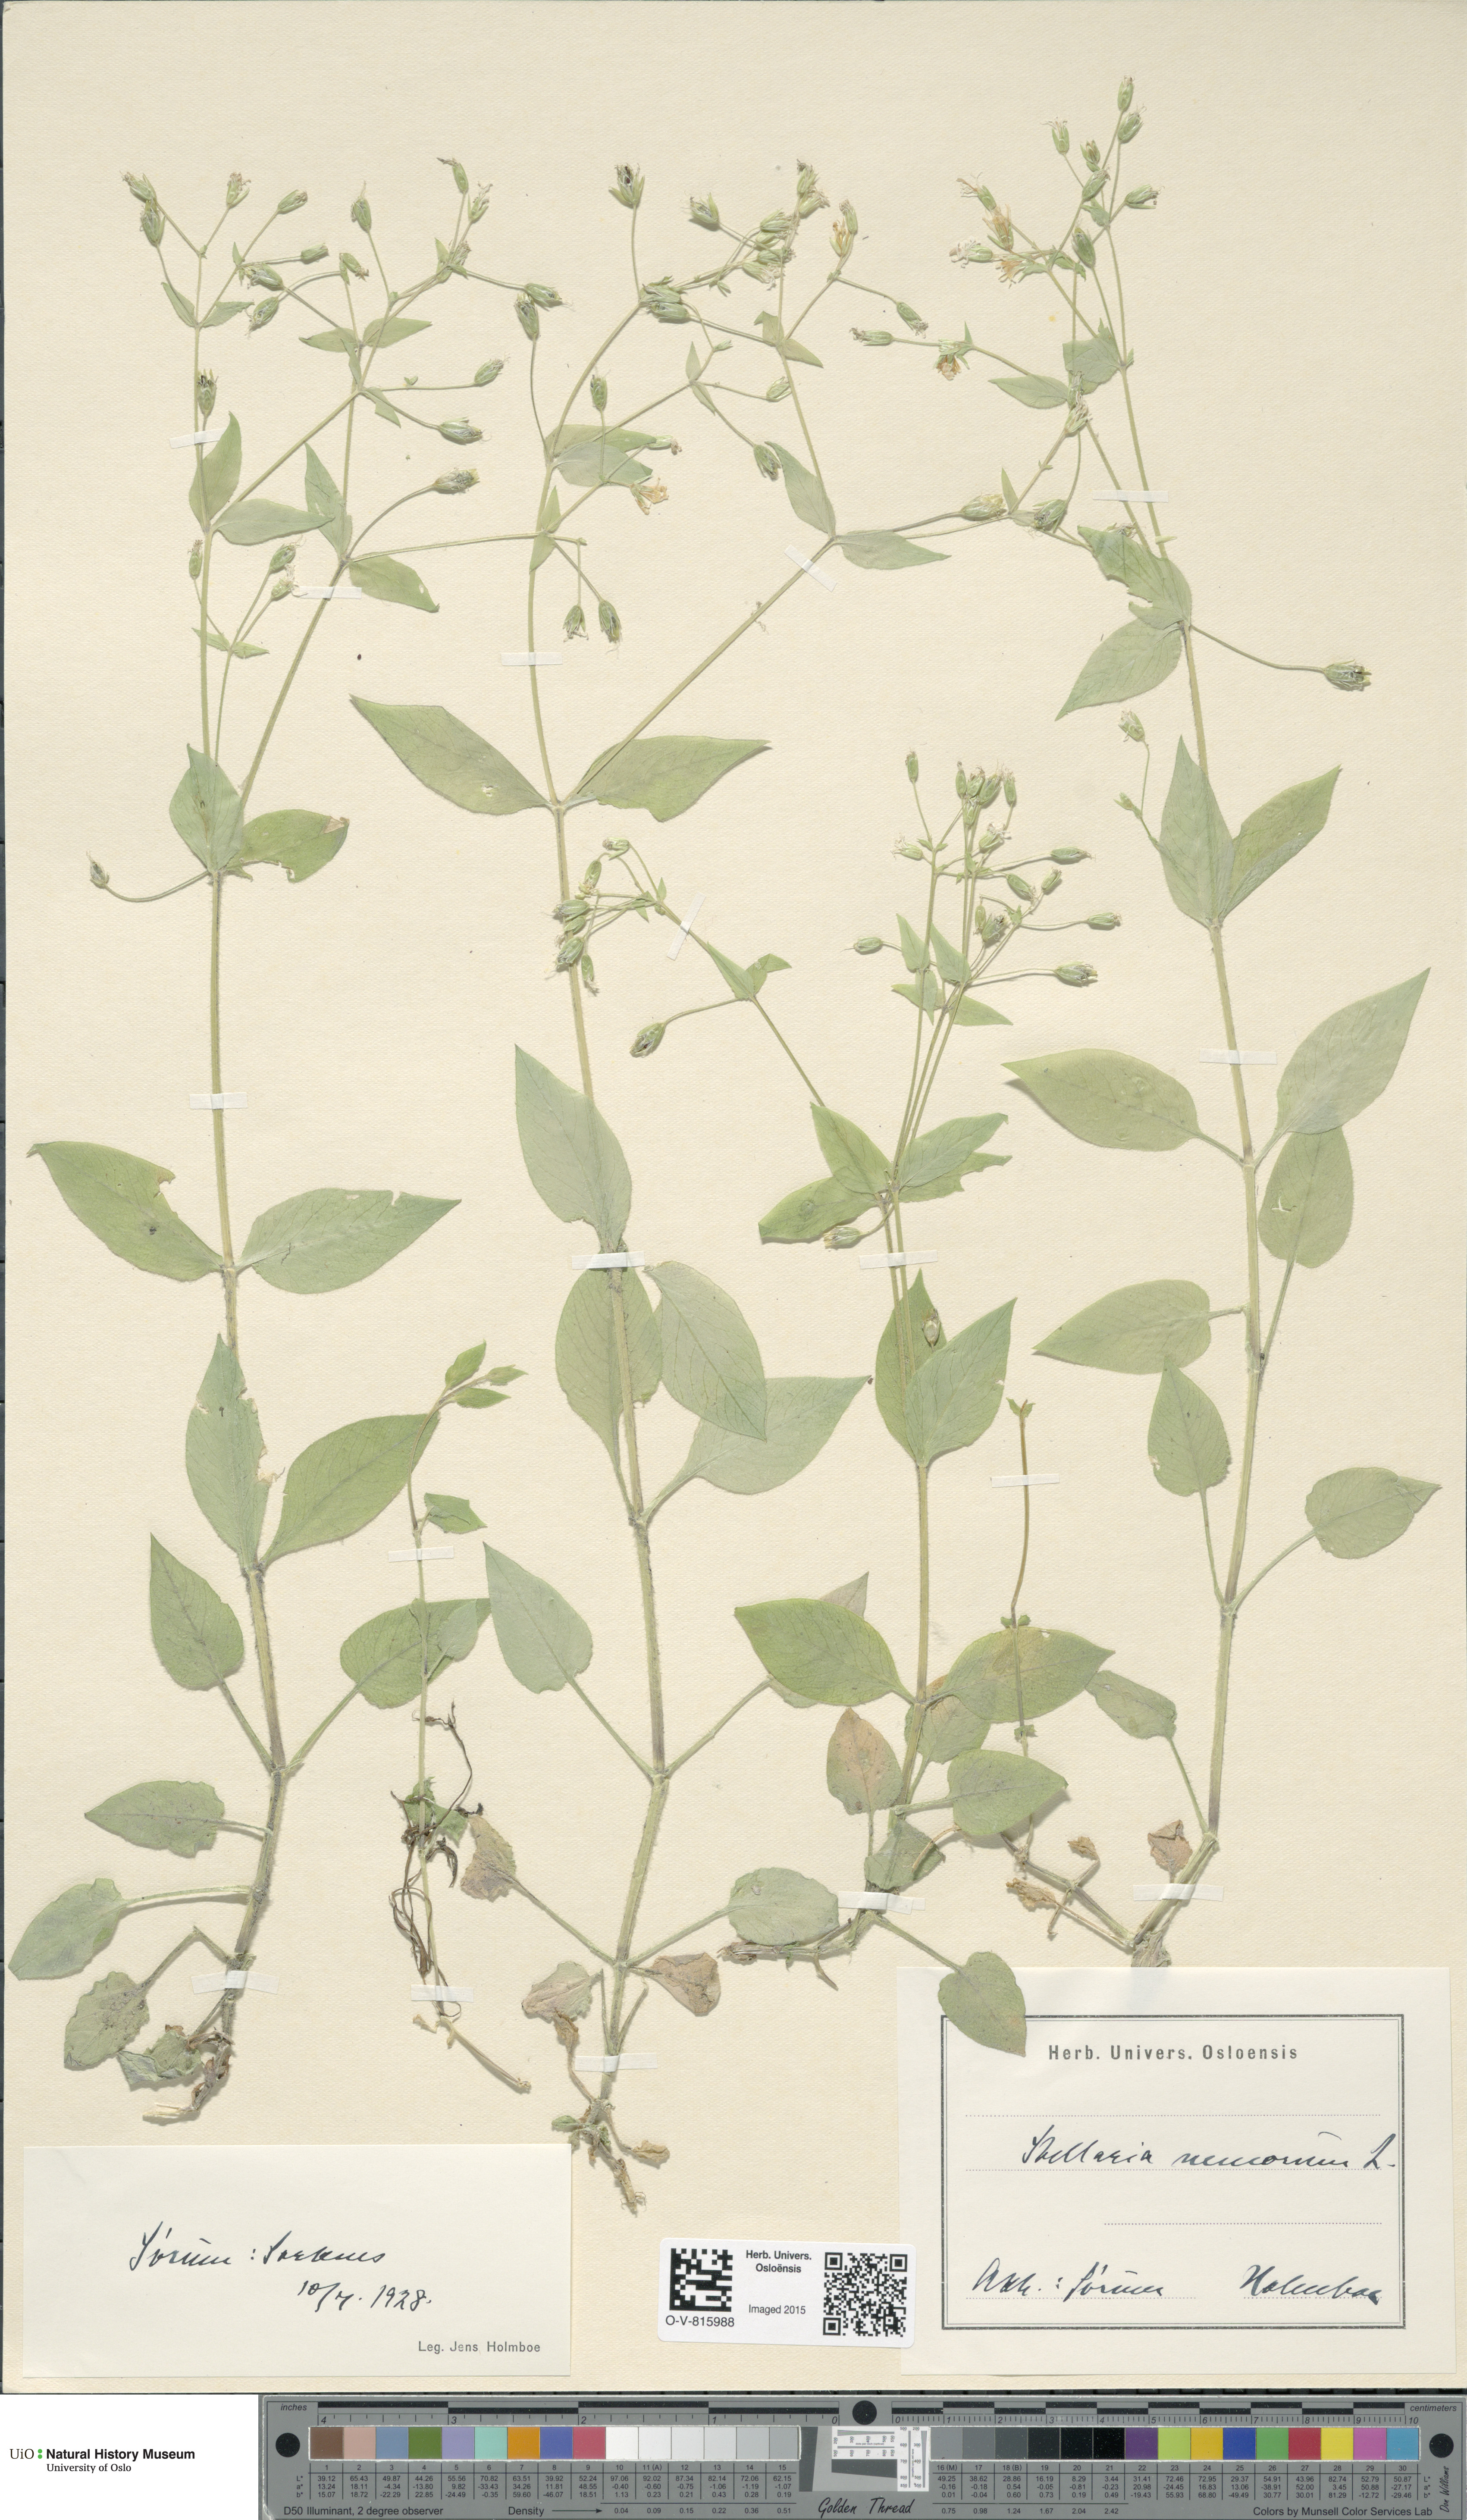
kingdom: Plantae
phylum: Tracheophyta
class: Magnoliopsida
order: Caryophyllales
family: Caryophyllaceae
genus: Stellaria
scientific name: Stellaria nemorum
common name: Wood stitchwort
